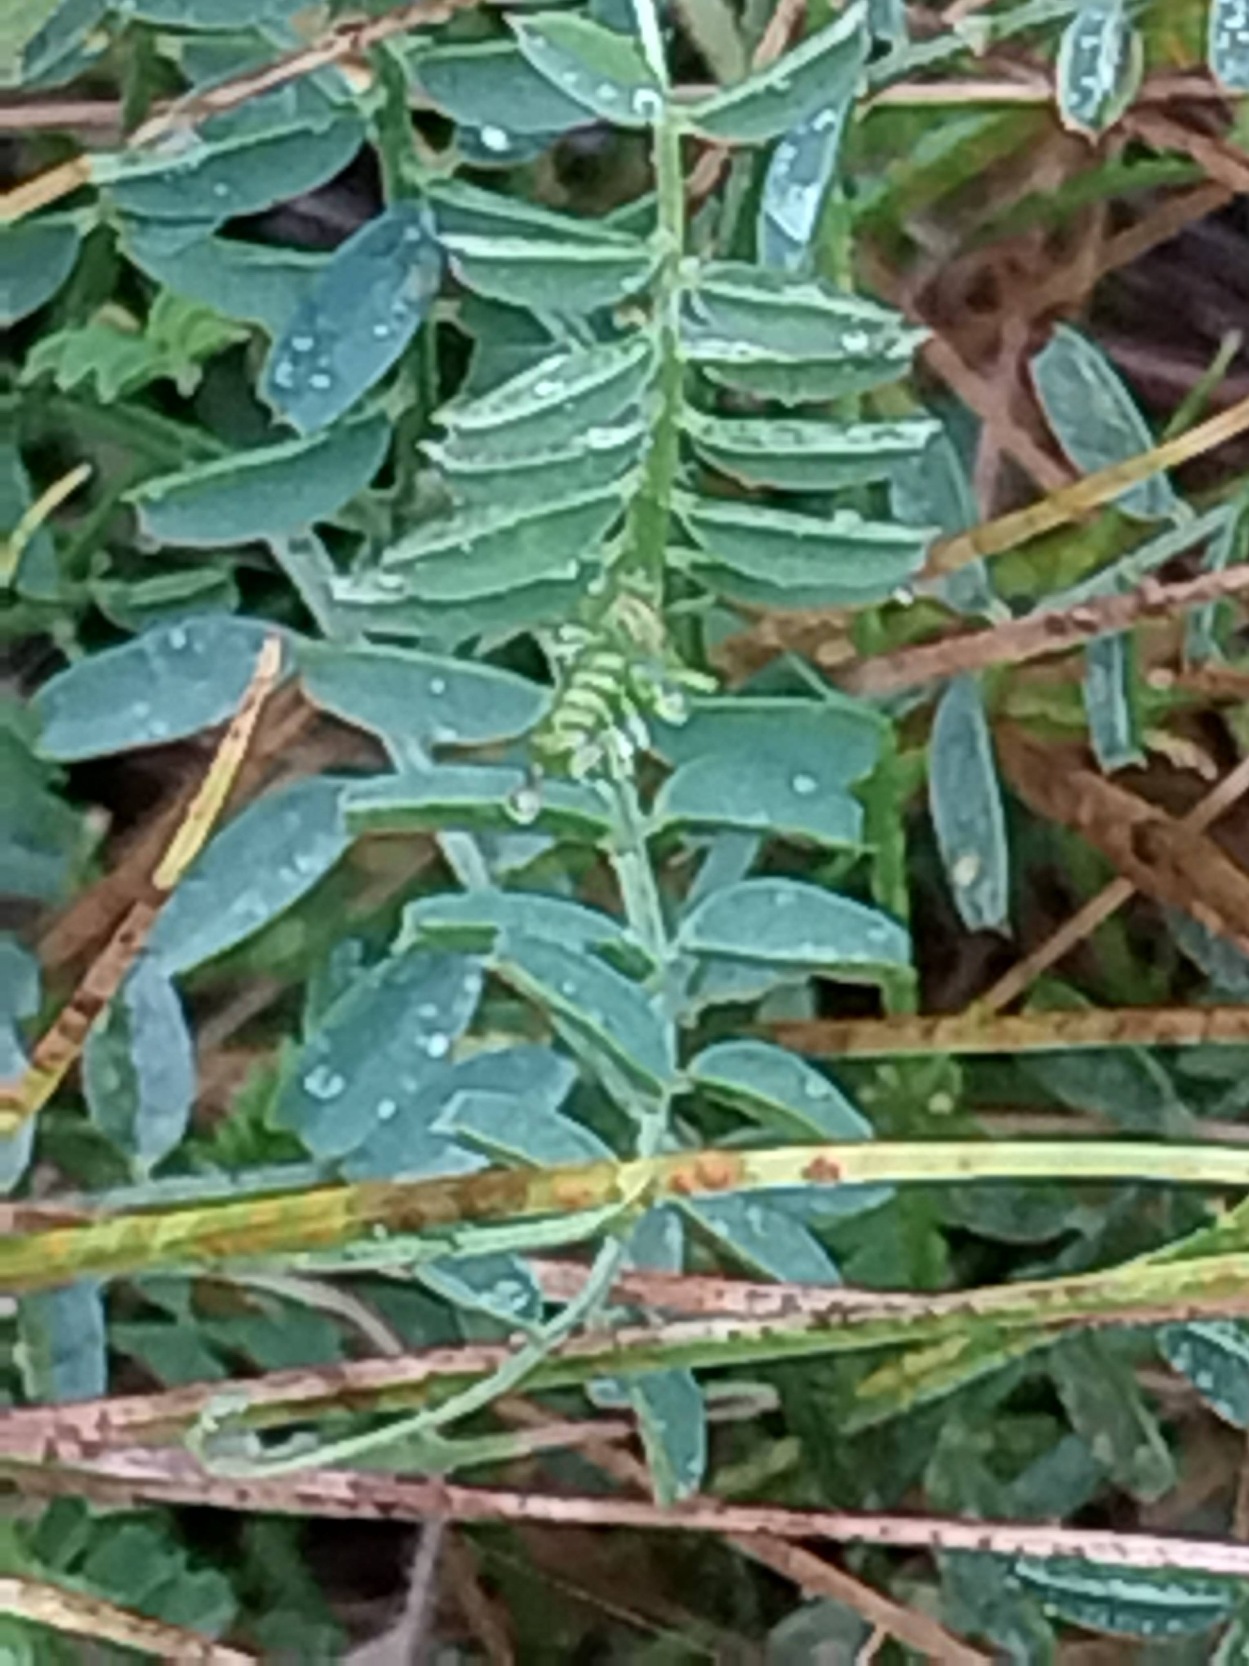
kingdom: Plantae
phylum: Tracheophyta
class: Magnoliopsida
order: Fabales
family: Fabaceae
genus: Vicia
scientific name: Vicia hirsuta
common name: Tofrøet vikke
